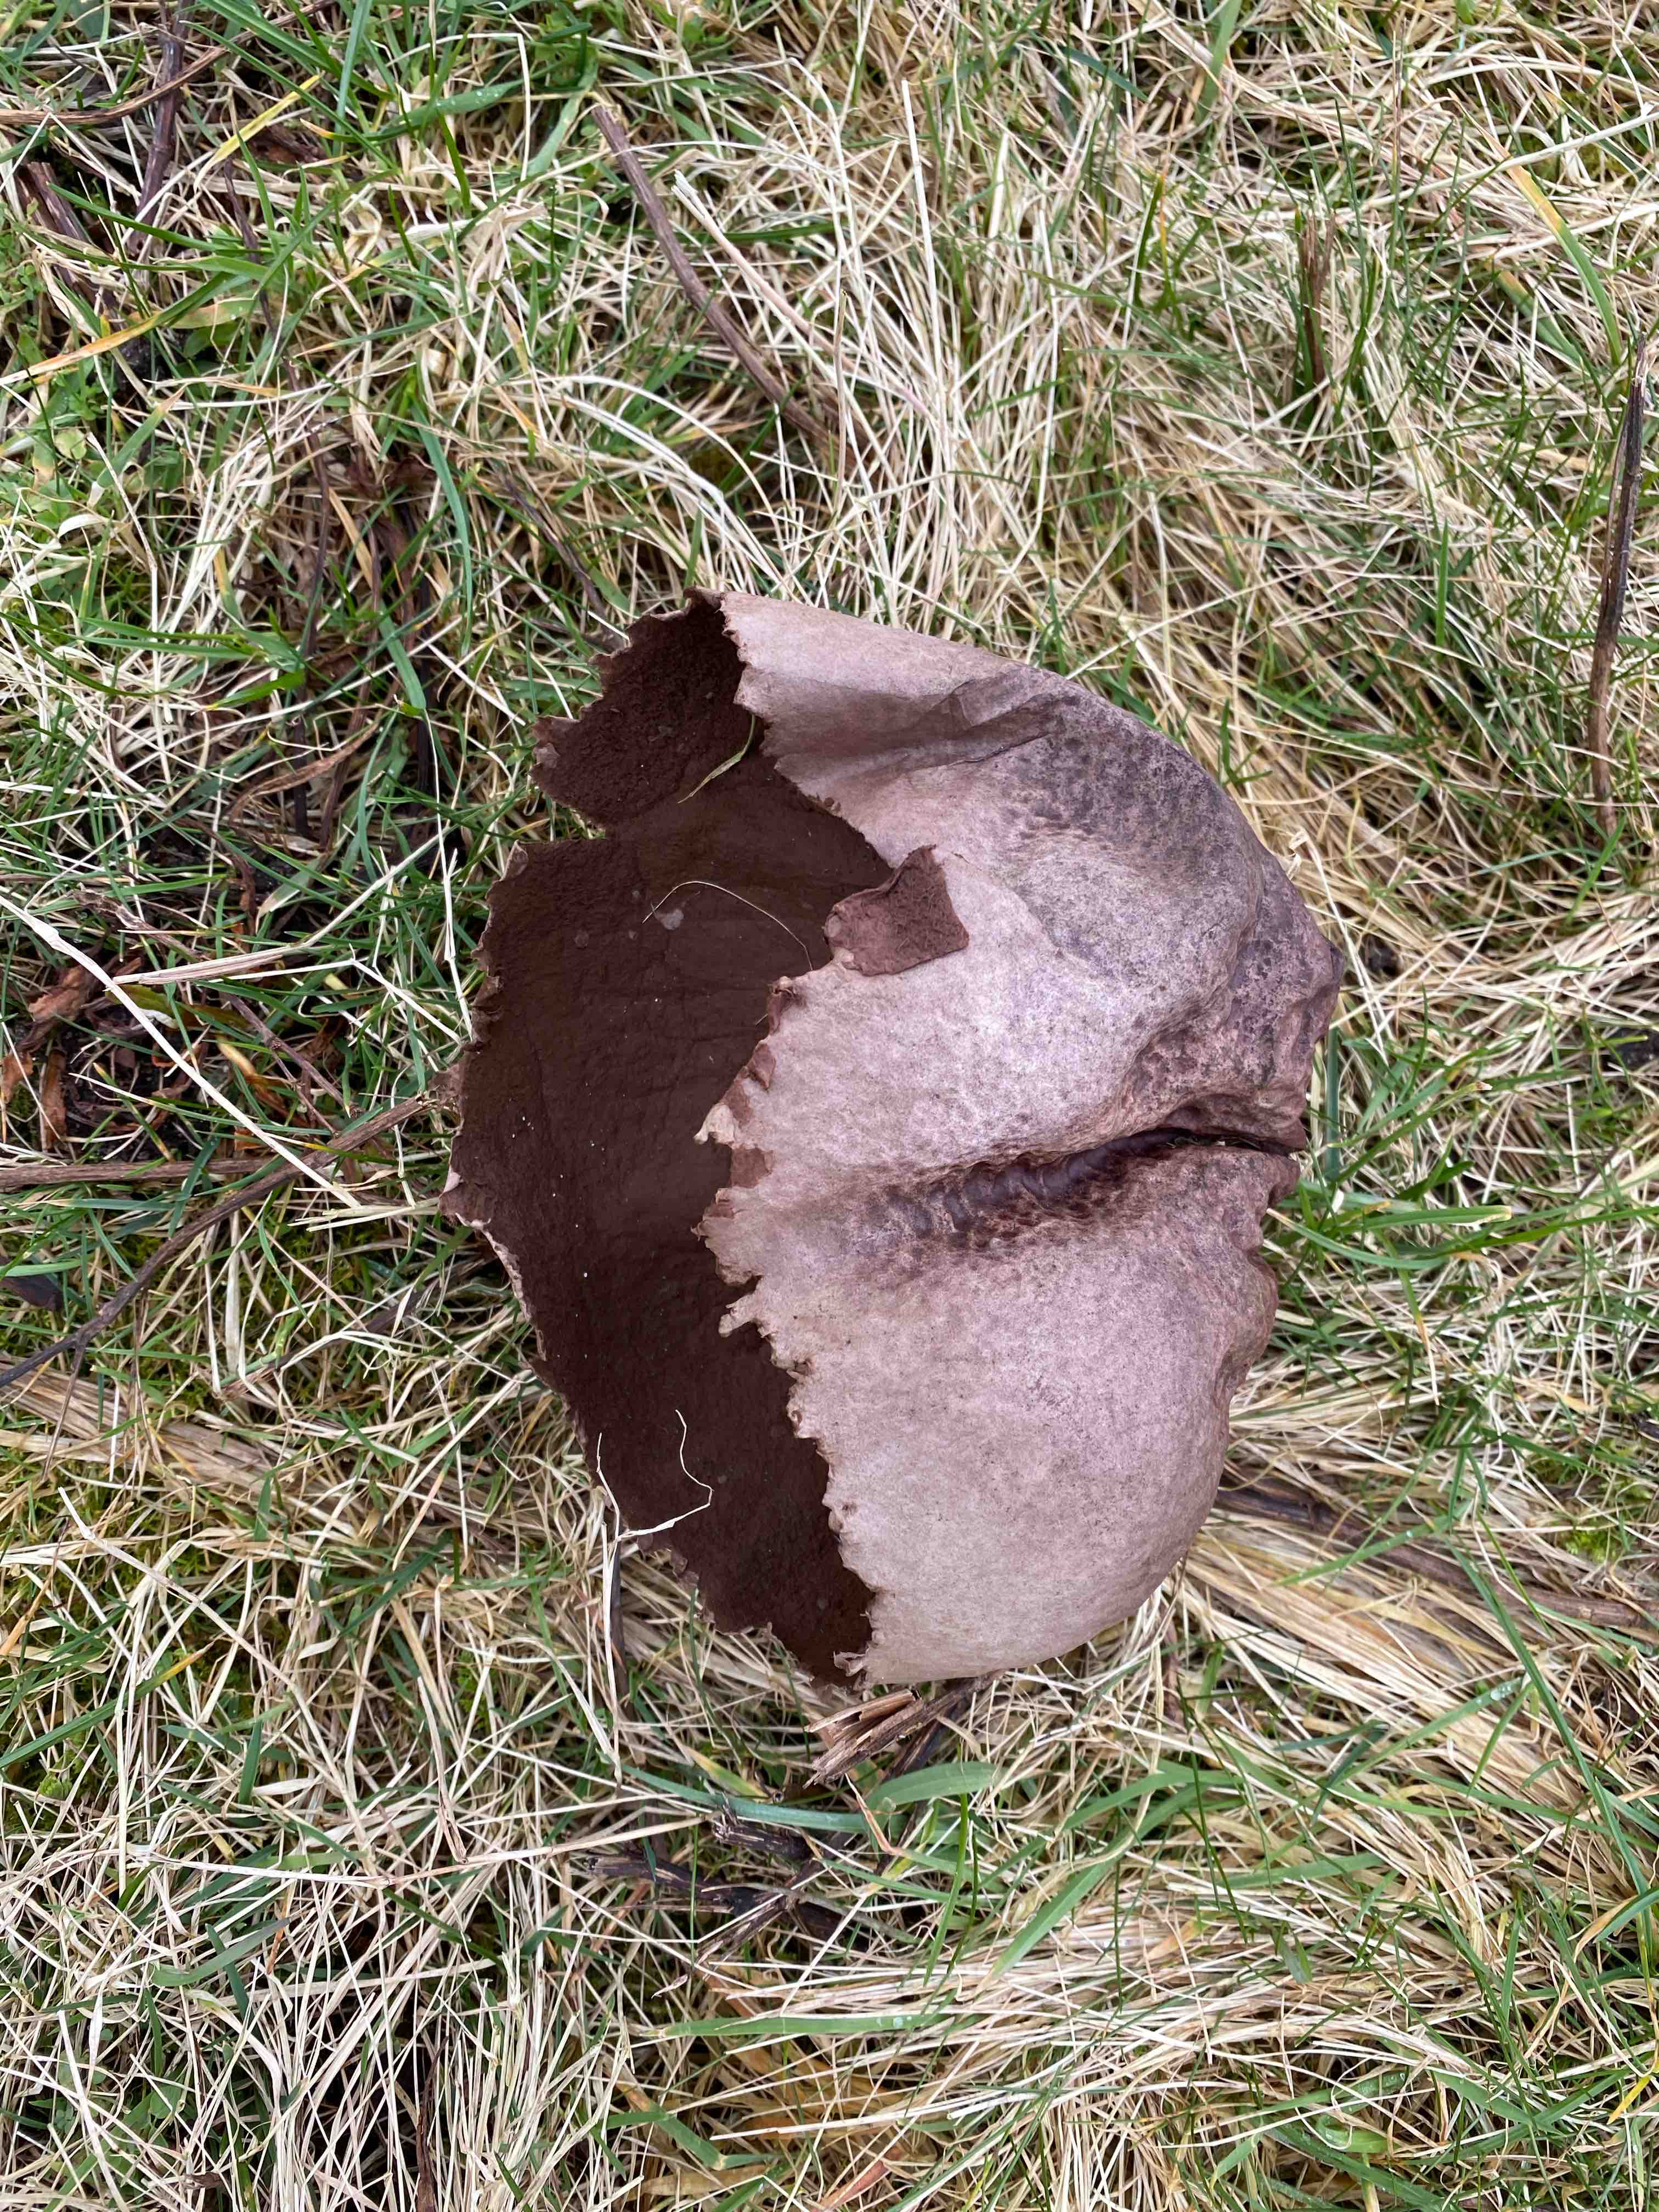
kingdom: Fungi
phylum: Basidiomycota
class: Agaricomycetes
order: Agaricales
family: Lycoperdaceae
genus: Bovistella
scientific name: Bovistella utriformis
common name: skællet støvbold
